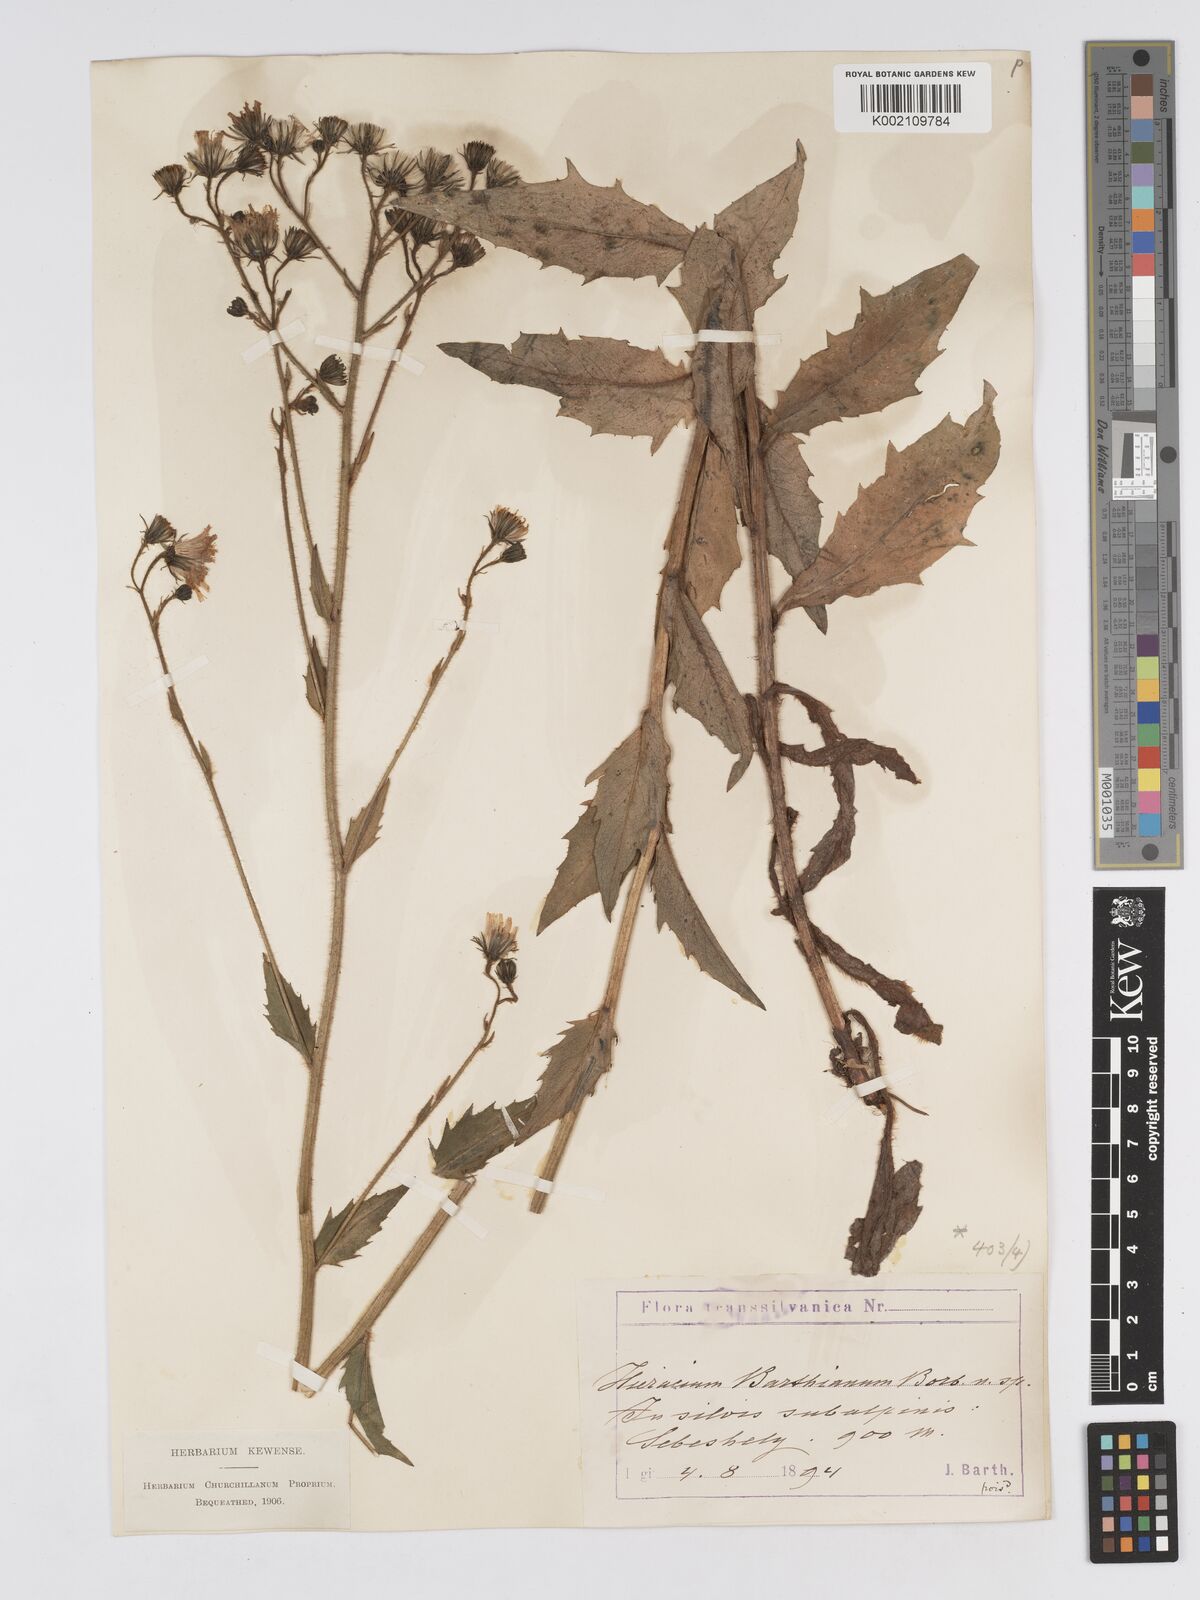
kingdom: Plantae
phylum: Tracheophyta
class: Magnoliopsida
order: Asterales
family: Asteraceae
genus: Hieracium
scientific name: Hieracium australe
